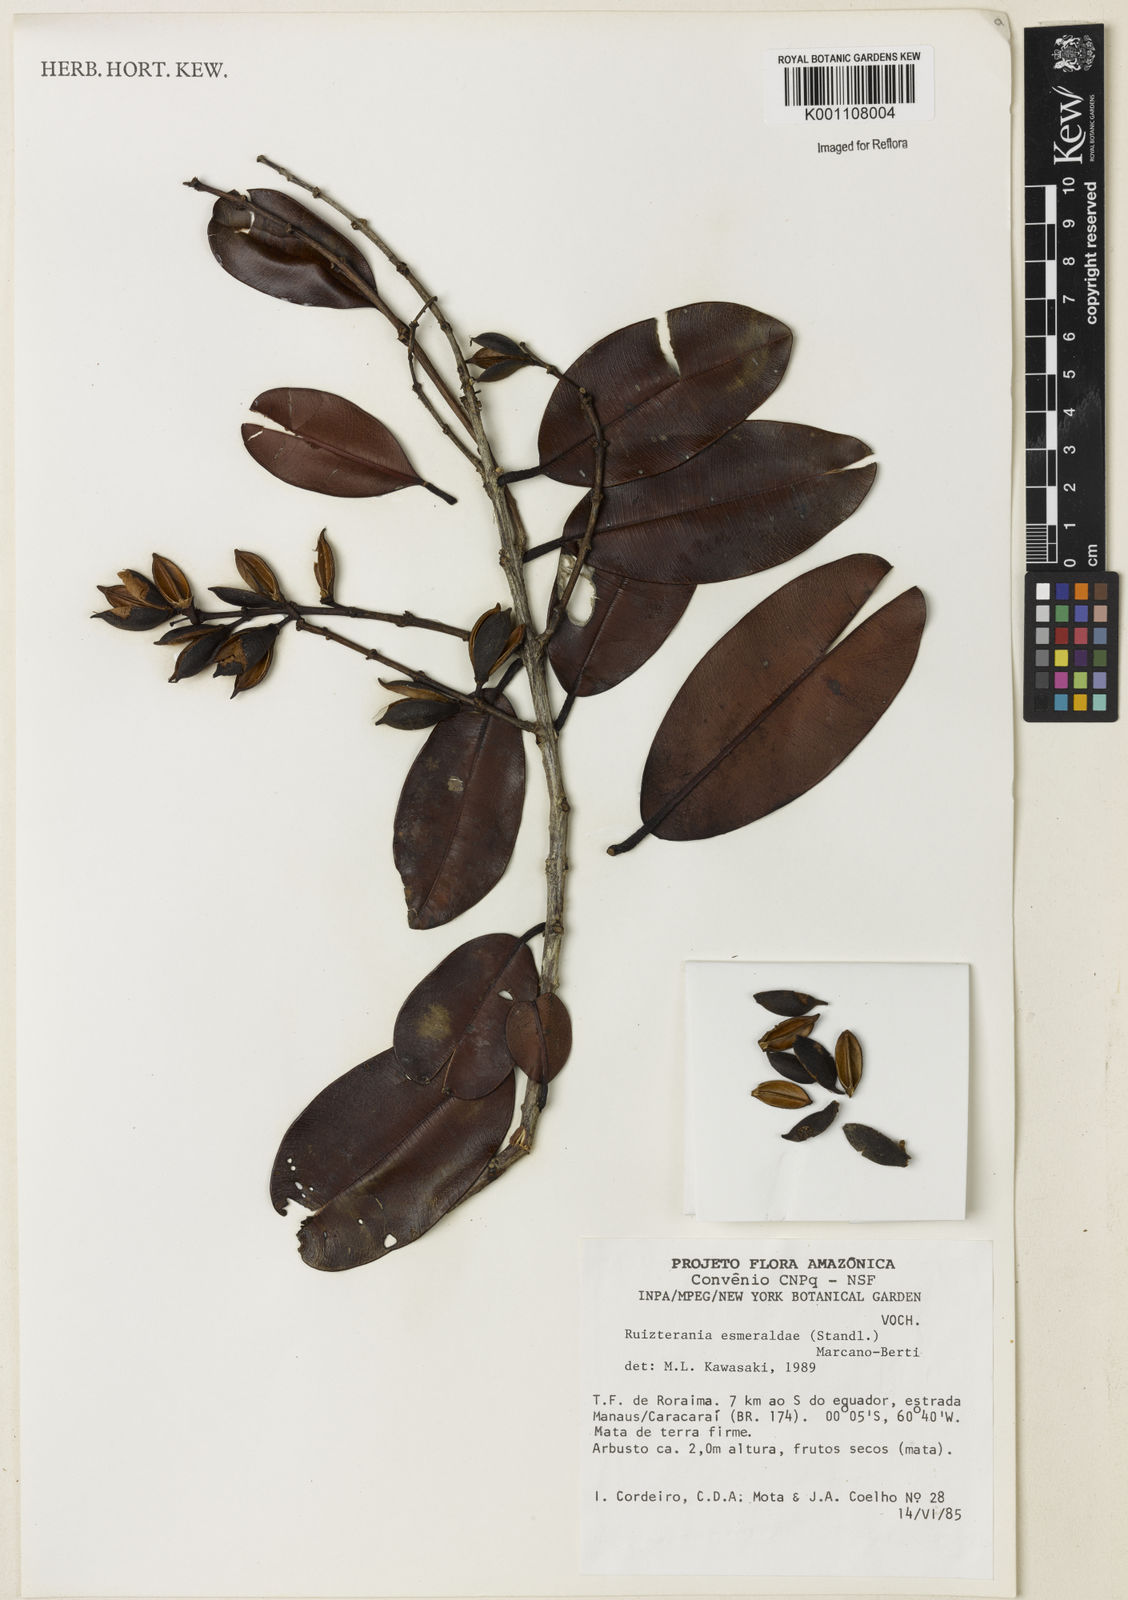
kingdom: Plantae
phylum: Tracheophyta
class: Magnoliopsida
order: Myrtales
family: Vochysiaceae
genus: Ruizterania
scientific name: Ruizterania esmeraldae
